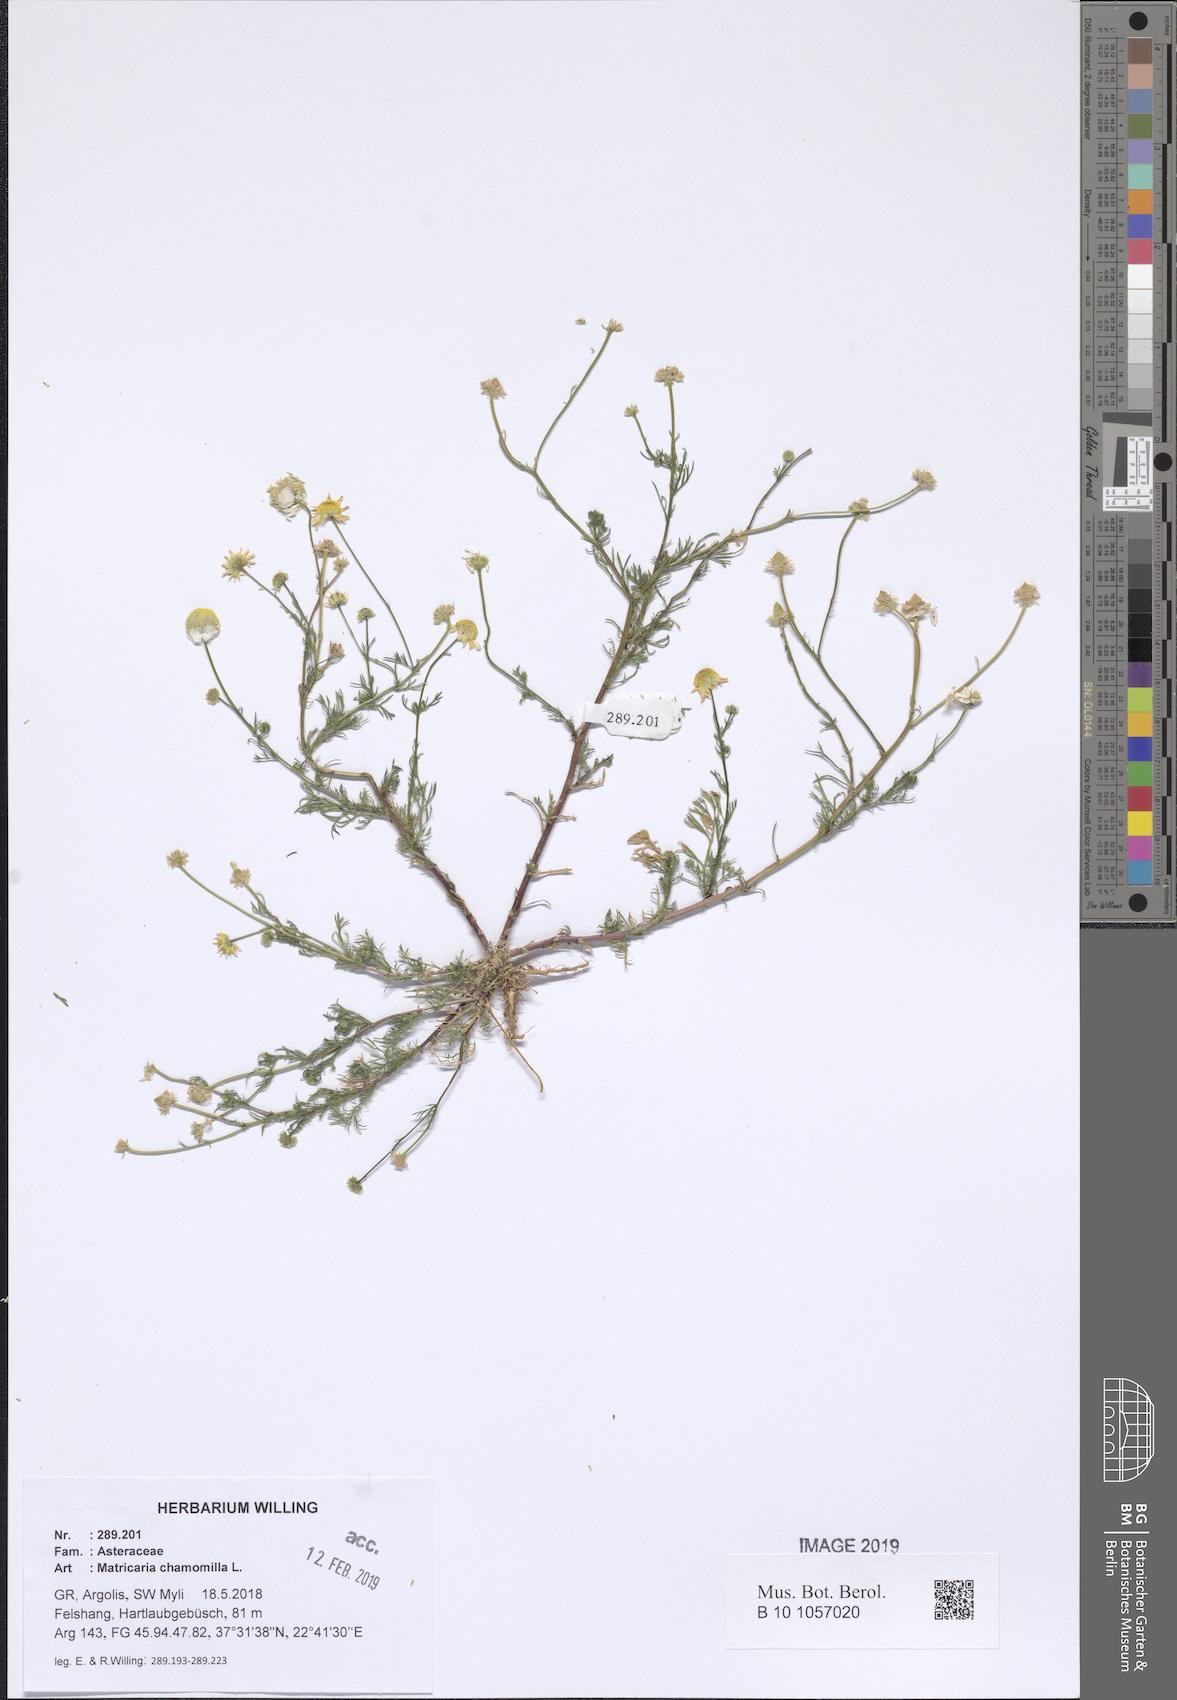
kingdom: Plantae
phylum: Tracheophyta
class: Magnoliopsida
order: Asterales
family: Asteraceae
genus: Matricaria
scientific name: Matricaria chamomilla
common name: Scented mayweed
